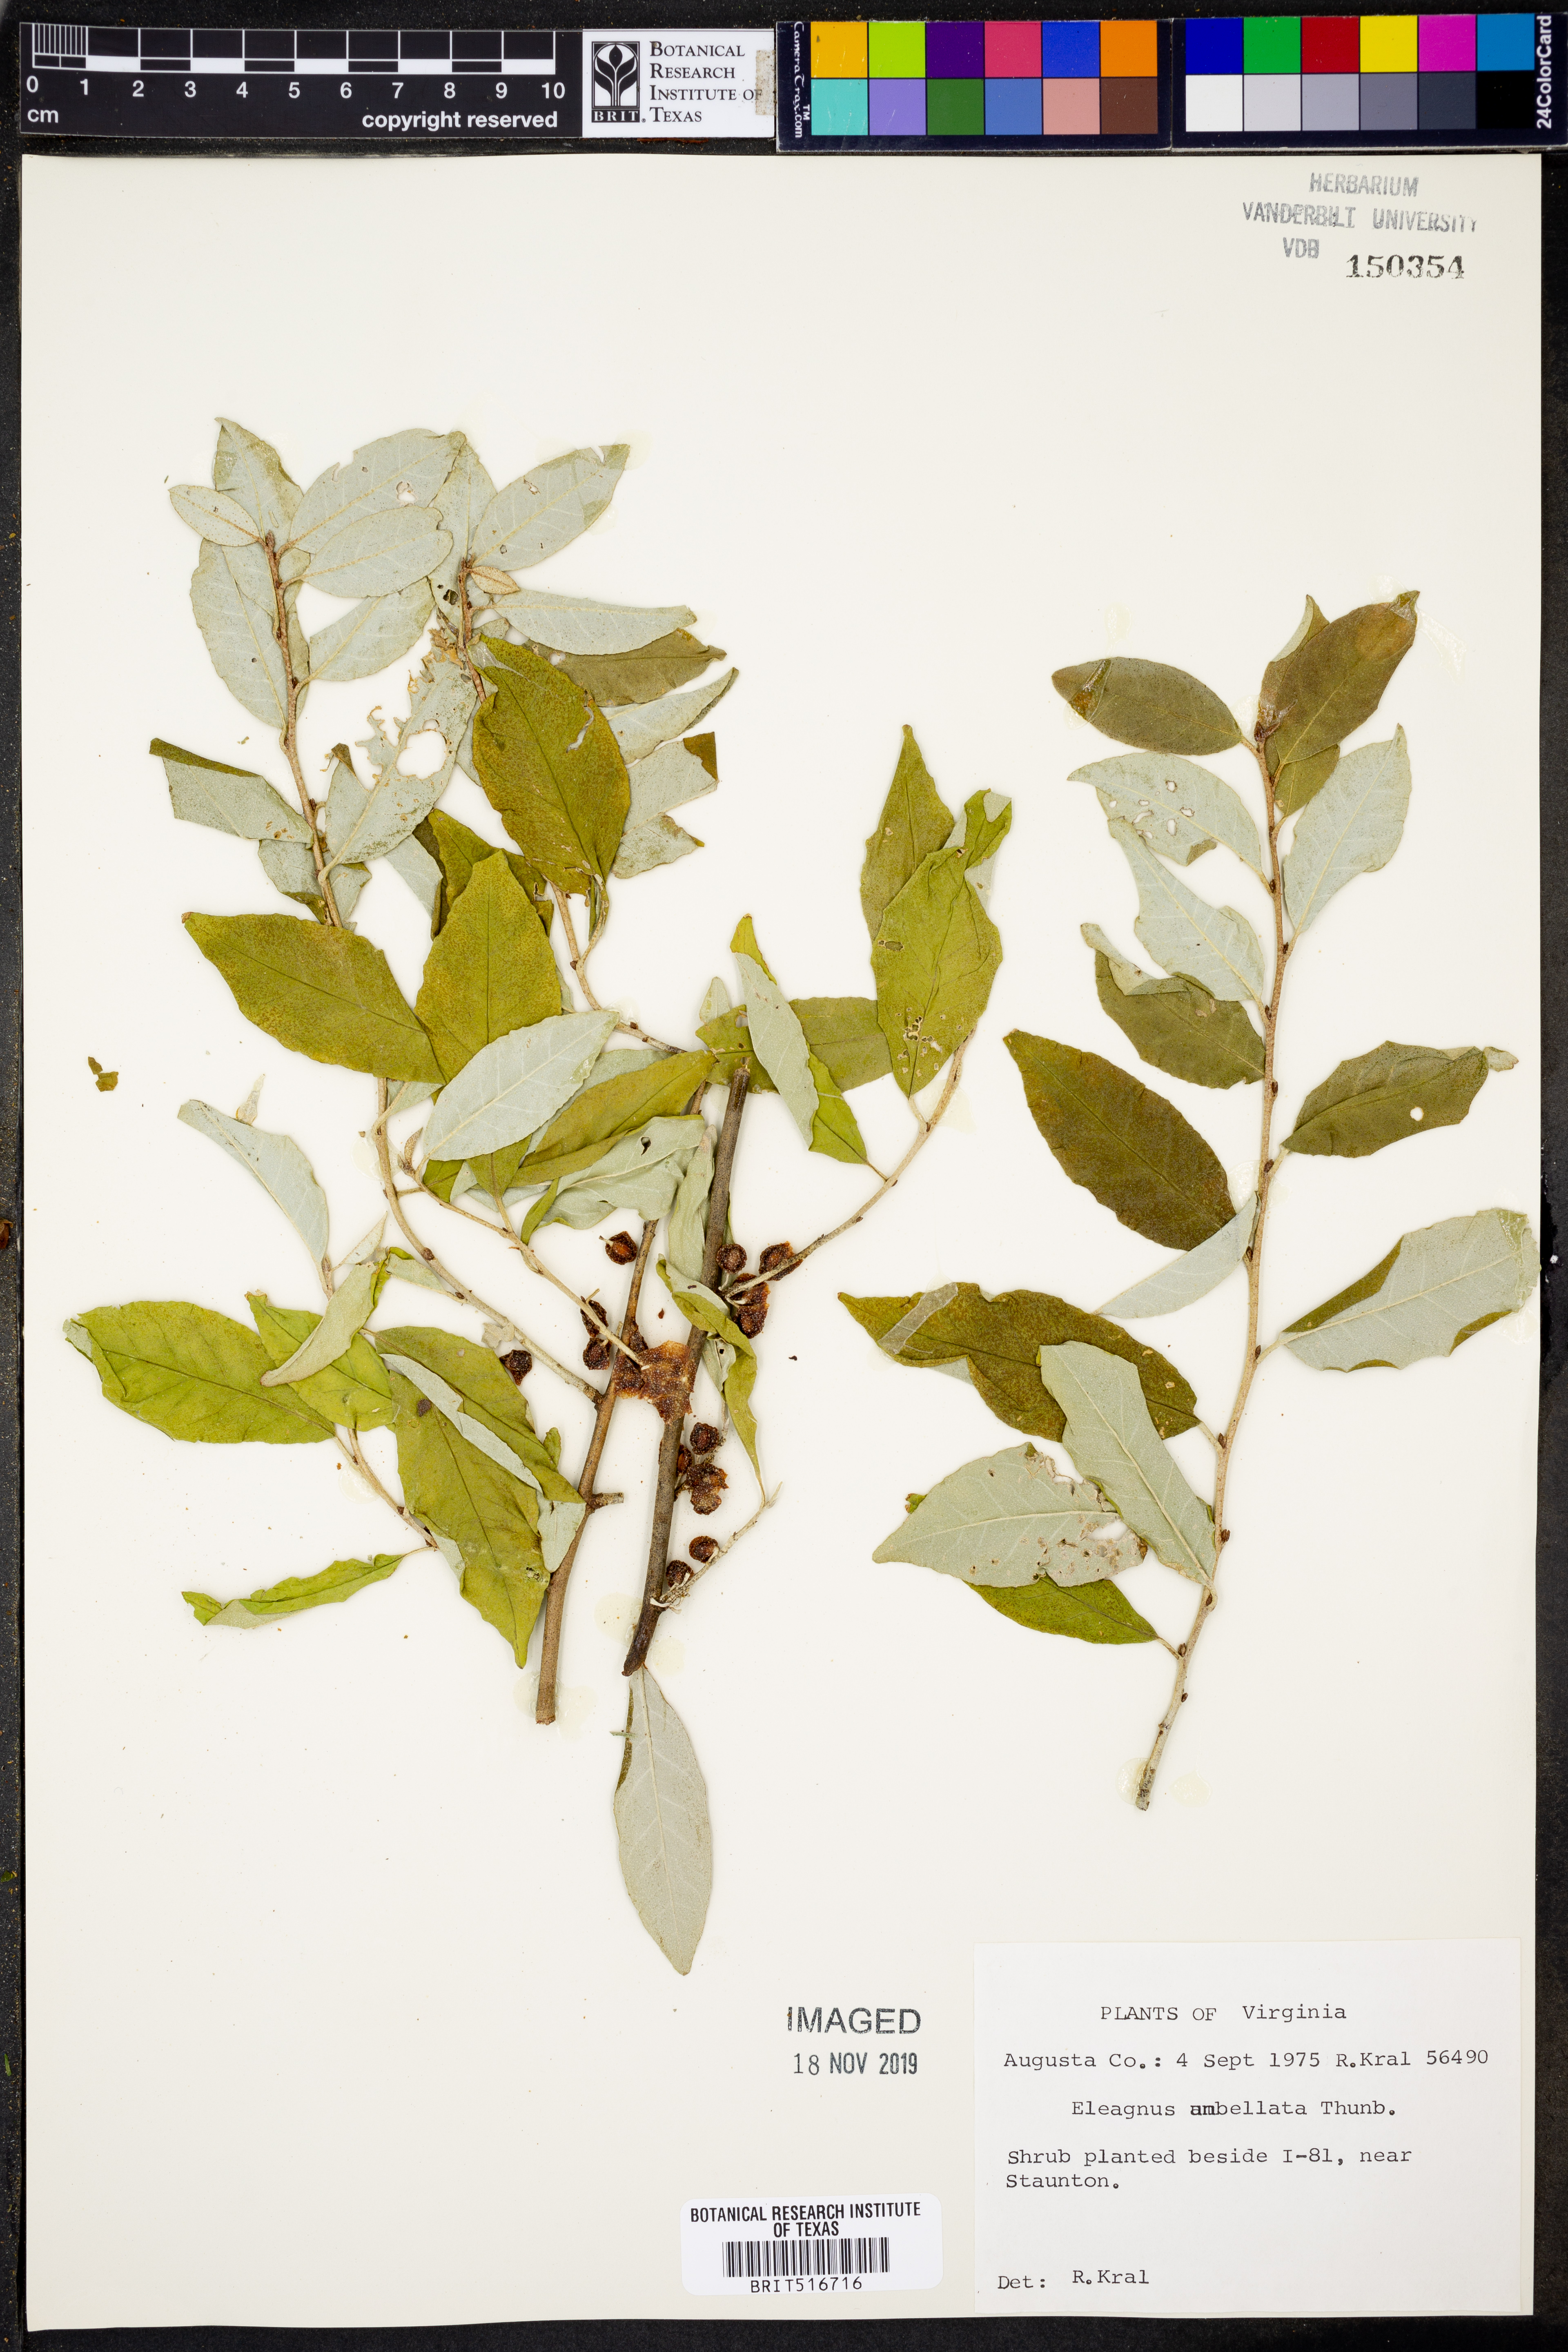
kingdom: Plantae
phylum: Tracheophyta
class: Magnoliopsida
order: Rosales
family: Elaeagnaceae
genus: Elaeagnus
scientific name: Elaeagnus umbellata
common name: Autumn olive
